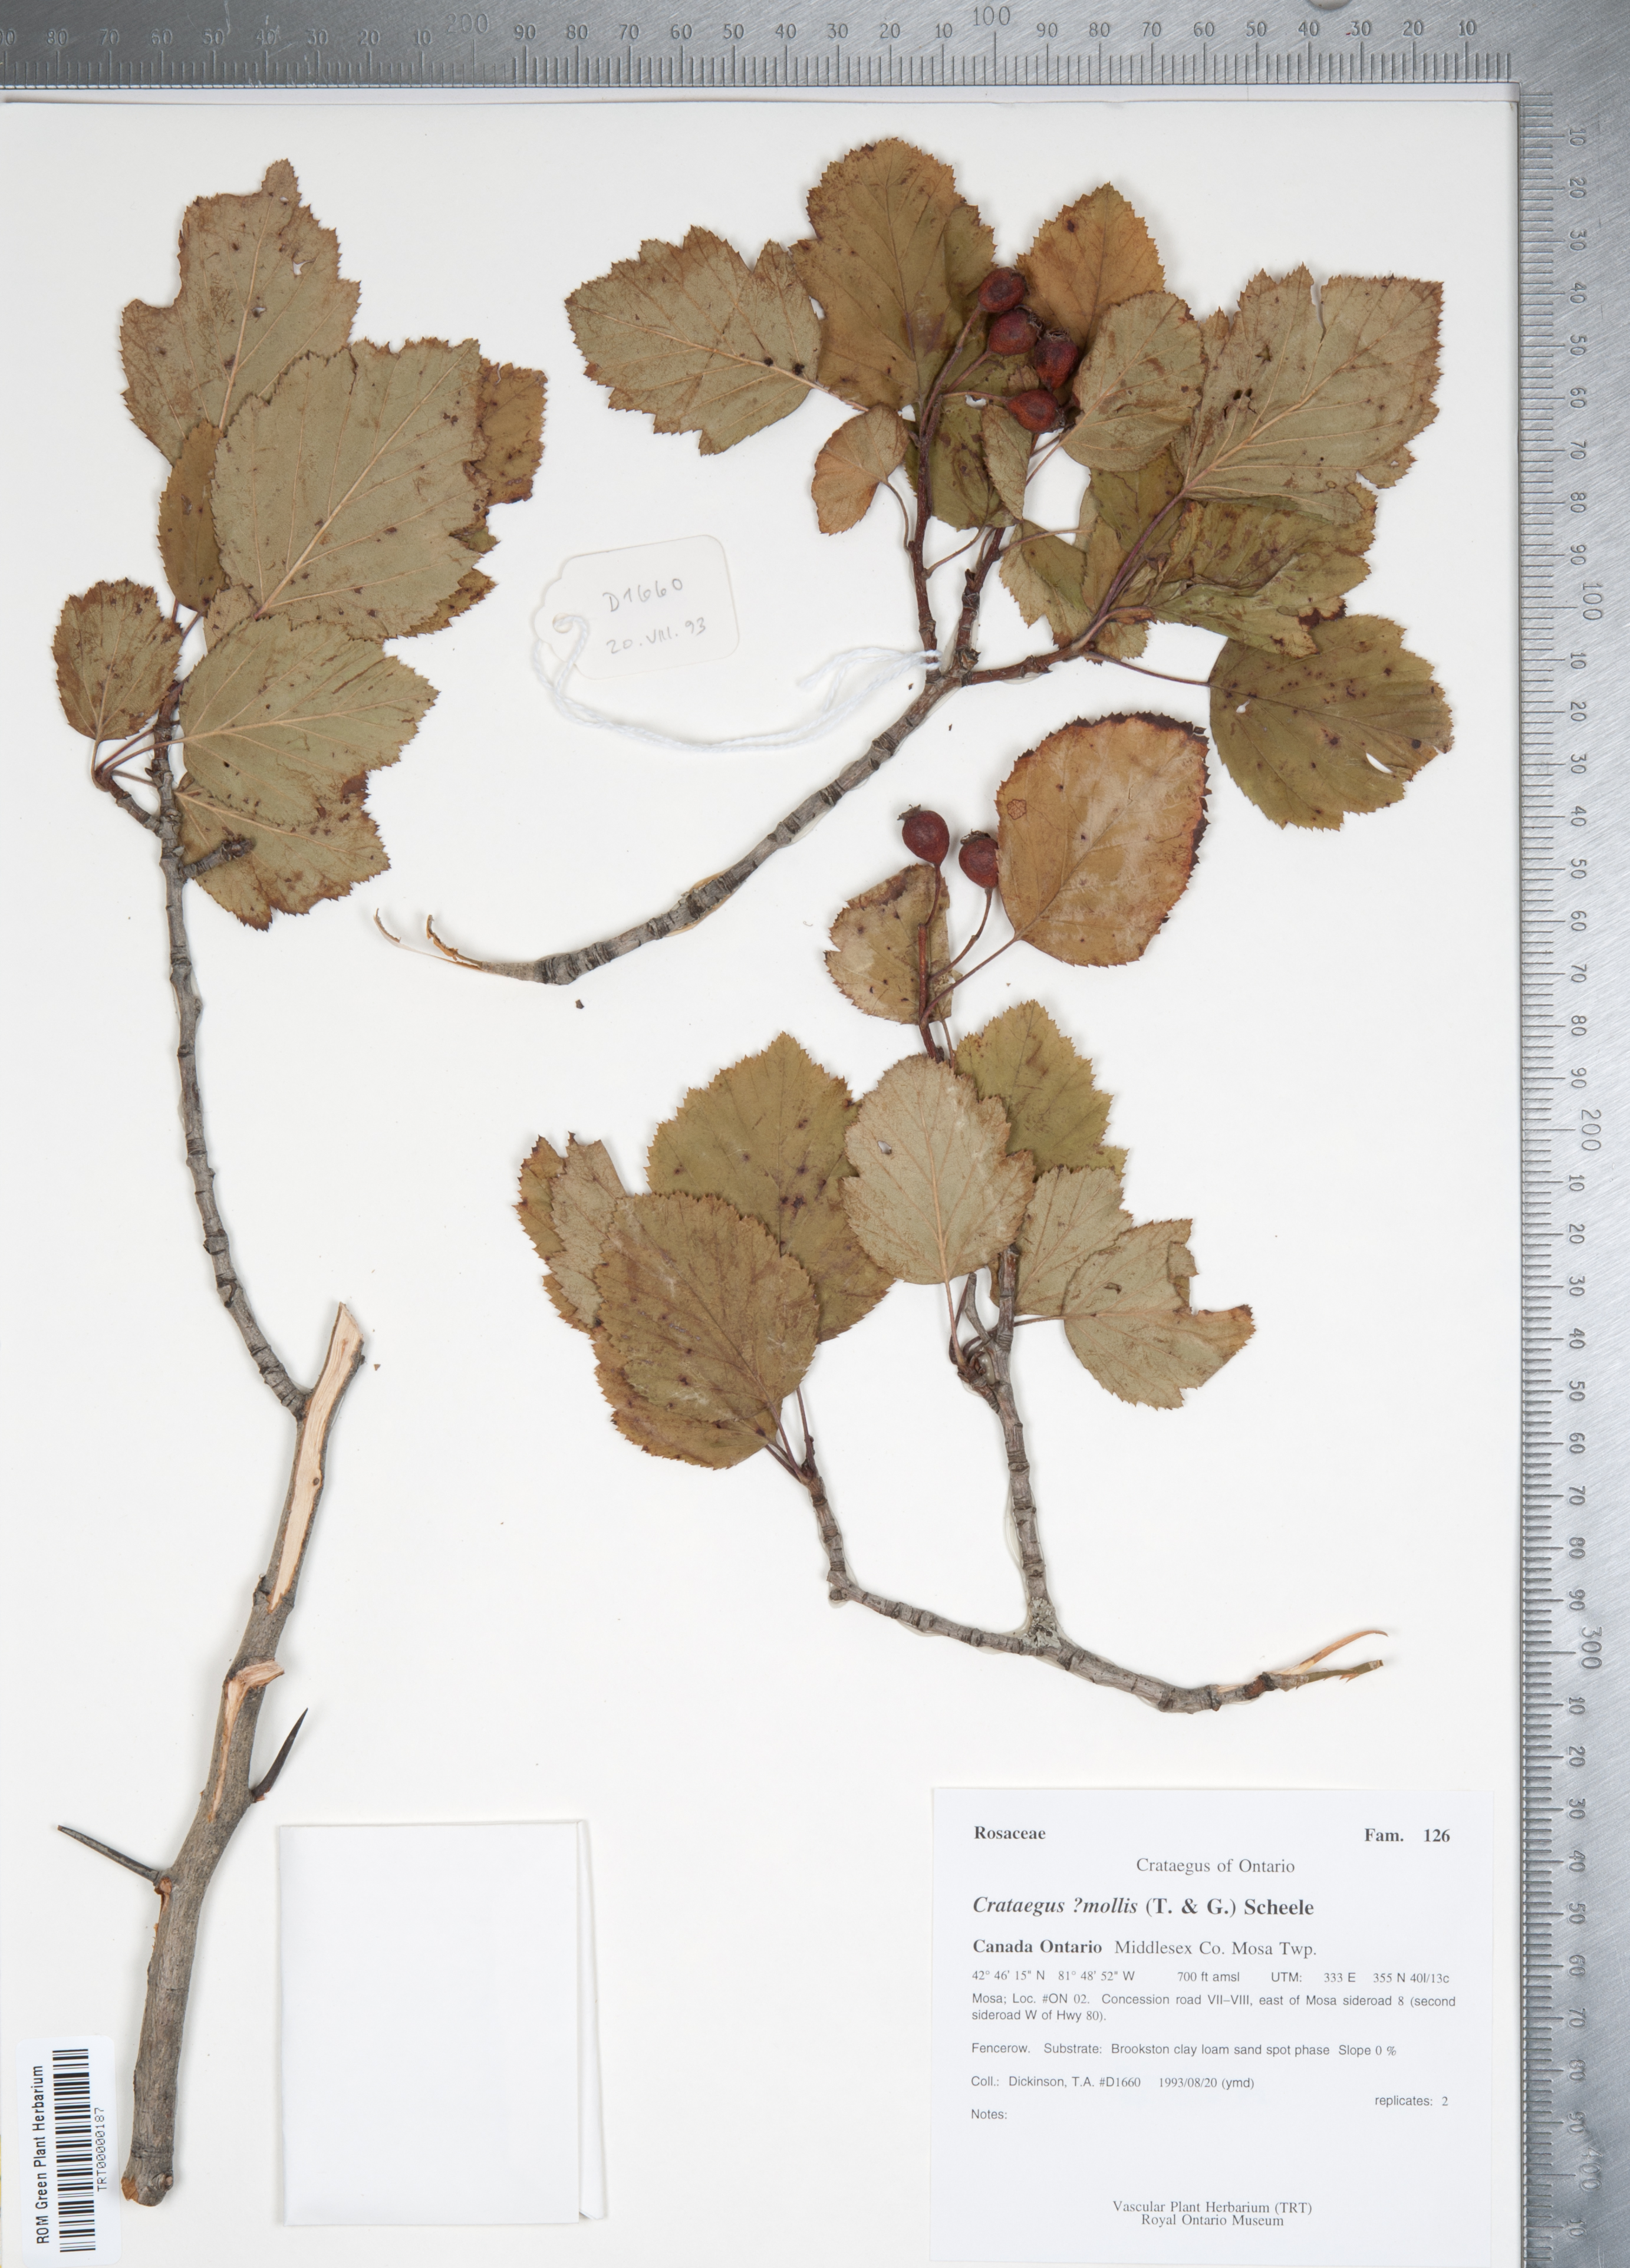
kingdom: Plantae
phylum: Tracheophyta
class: Magnoliopsida
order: Rosales
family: Rosaceae
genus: Crataegus
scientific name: Crataegus mollis
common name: Downy hawthorn
